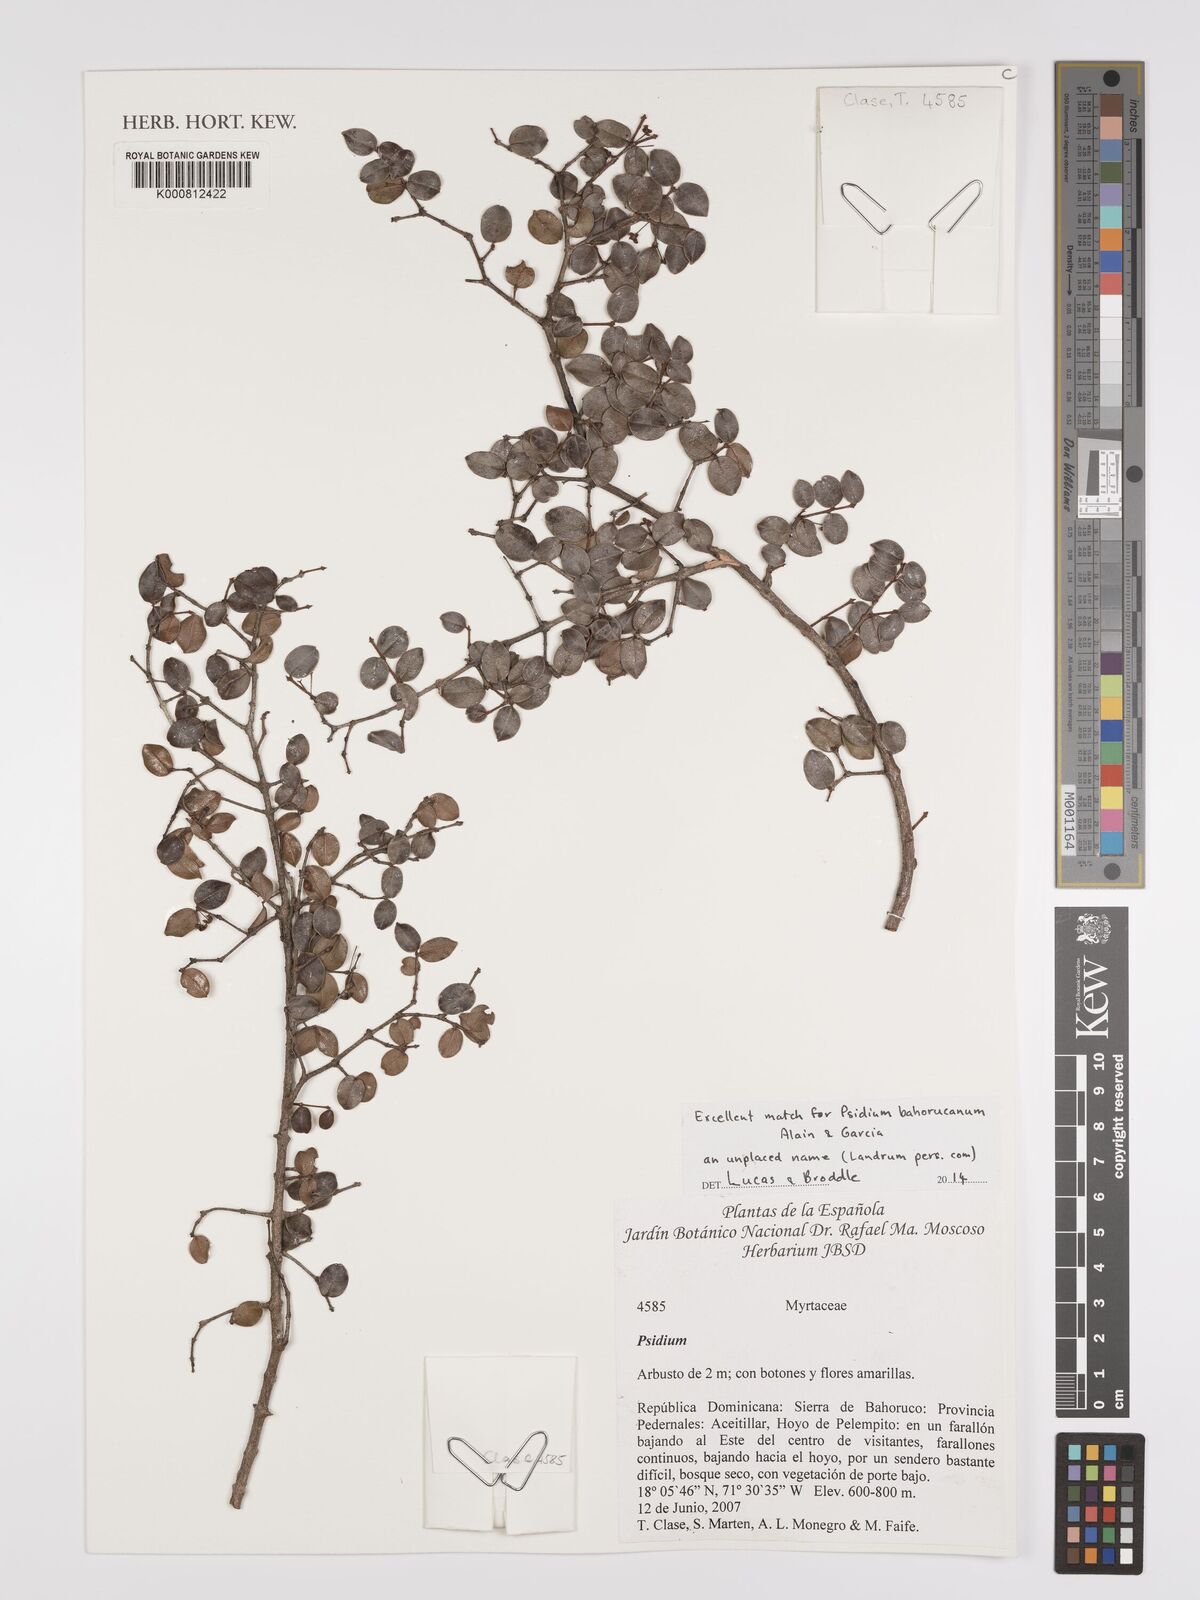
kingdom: Plantae
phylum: Tracheophyta
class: Magnoliopsida
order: Myrtales
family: Myrtaceae
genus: Psidium
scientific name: Psidium
